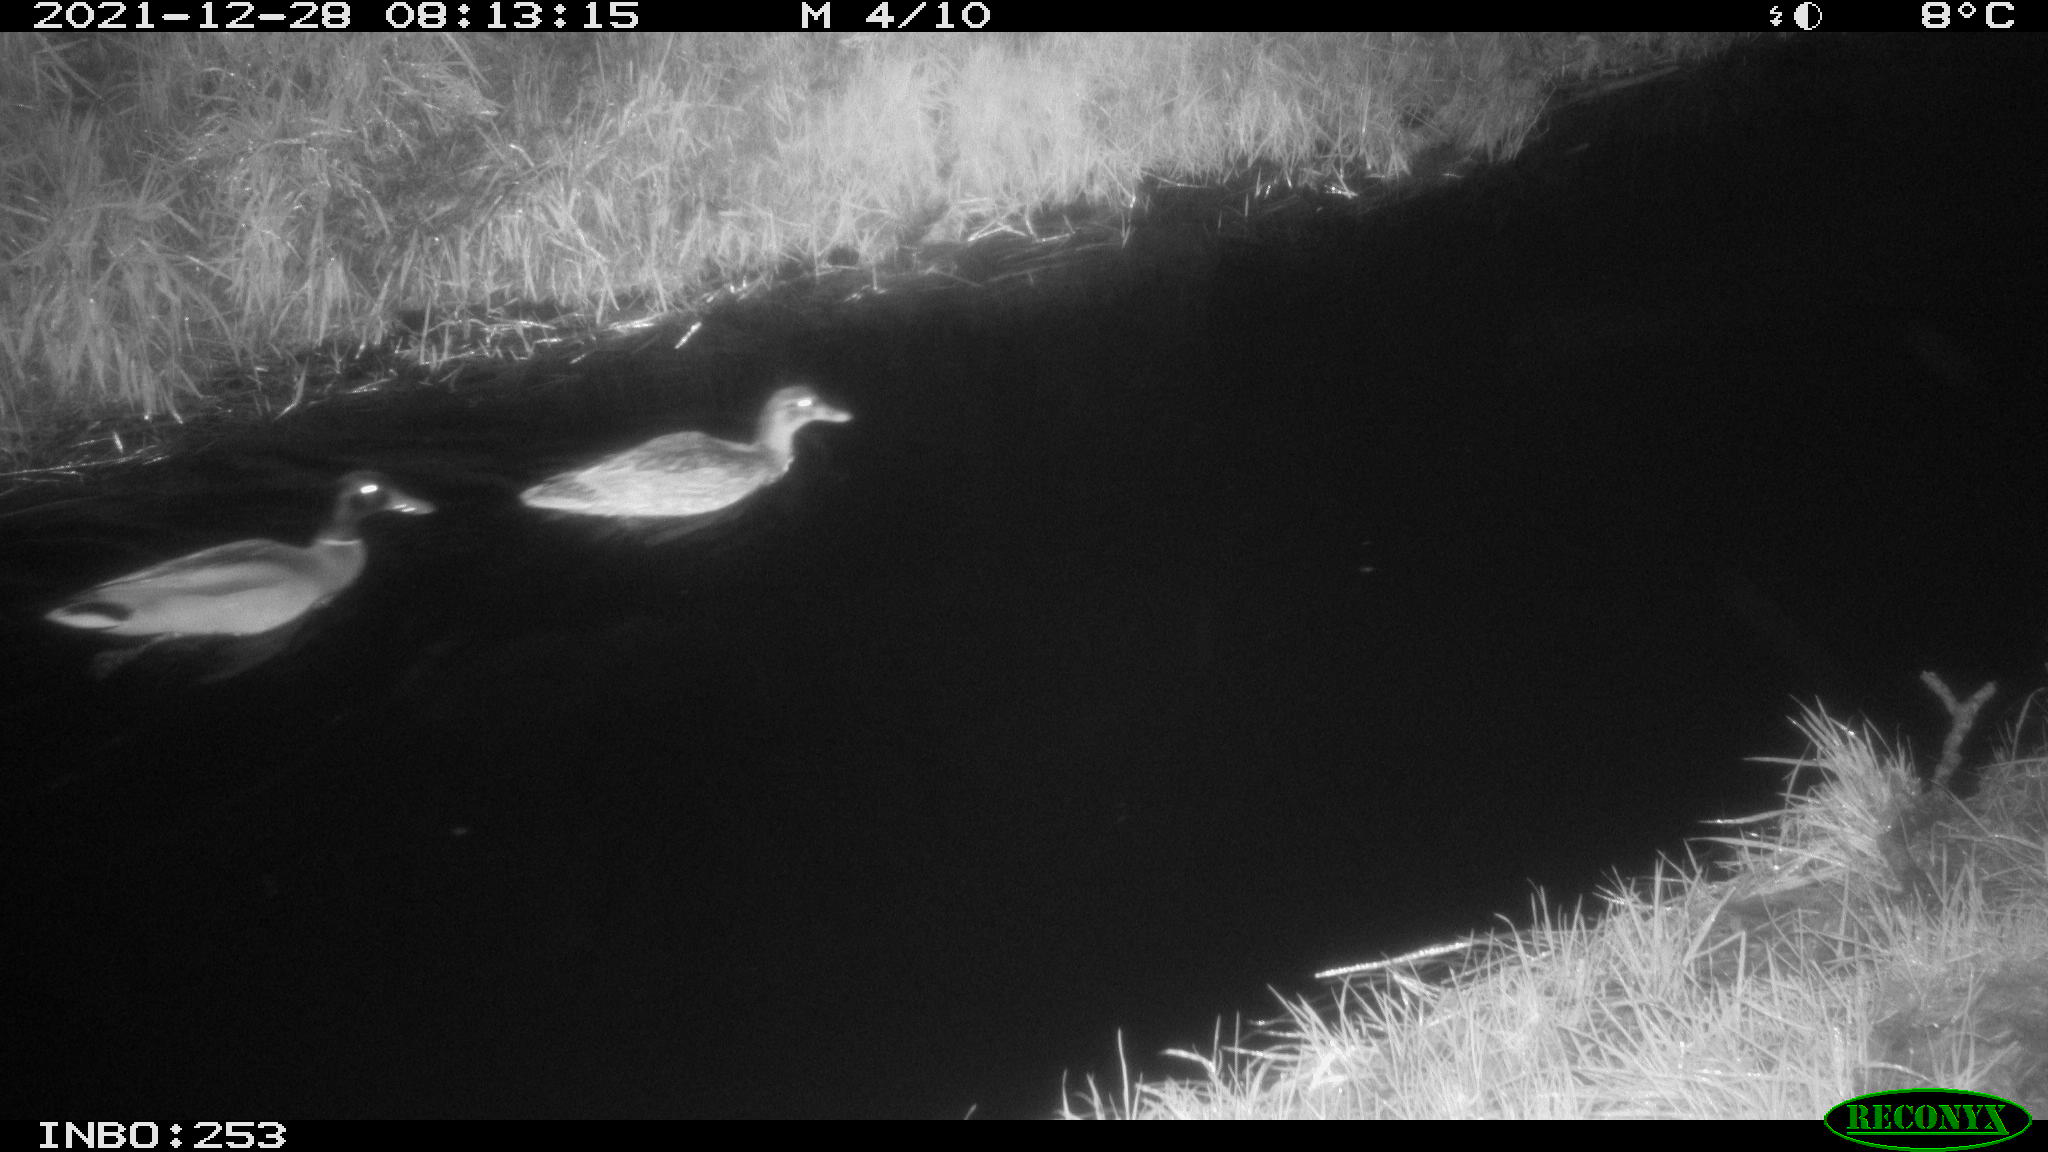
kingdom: Animalia
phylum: Chordata
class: Aves
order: Anseriformes
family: Anatidae
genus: Anas
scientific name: Anas
